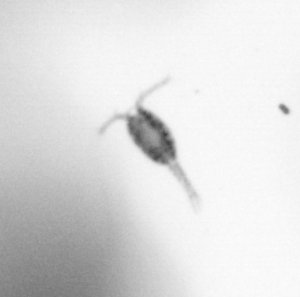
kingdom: Animalia
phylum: Arthropoda
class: Copepoda
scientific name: Copepoda
